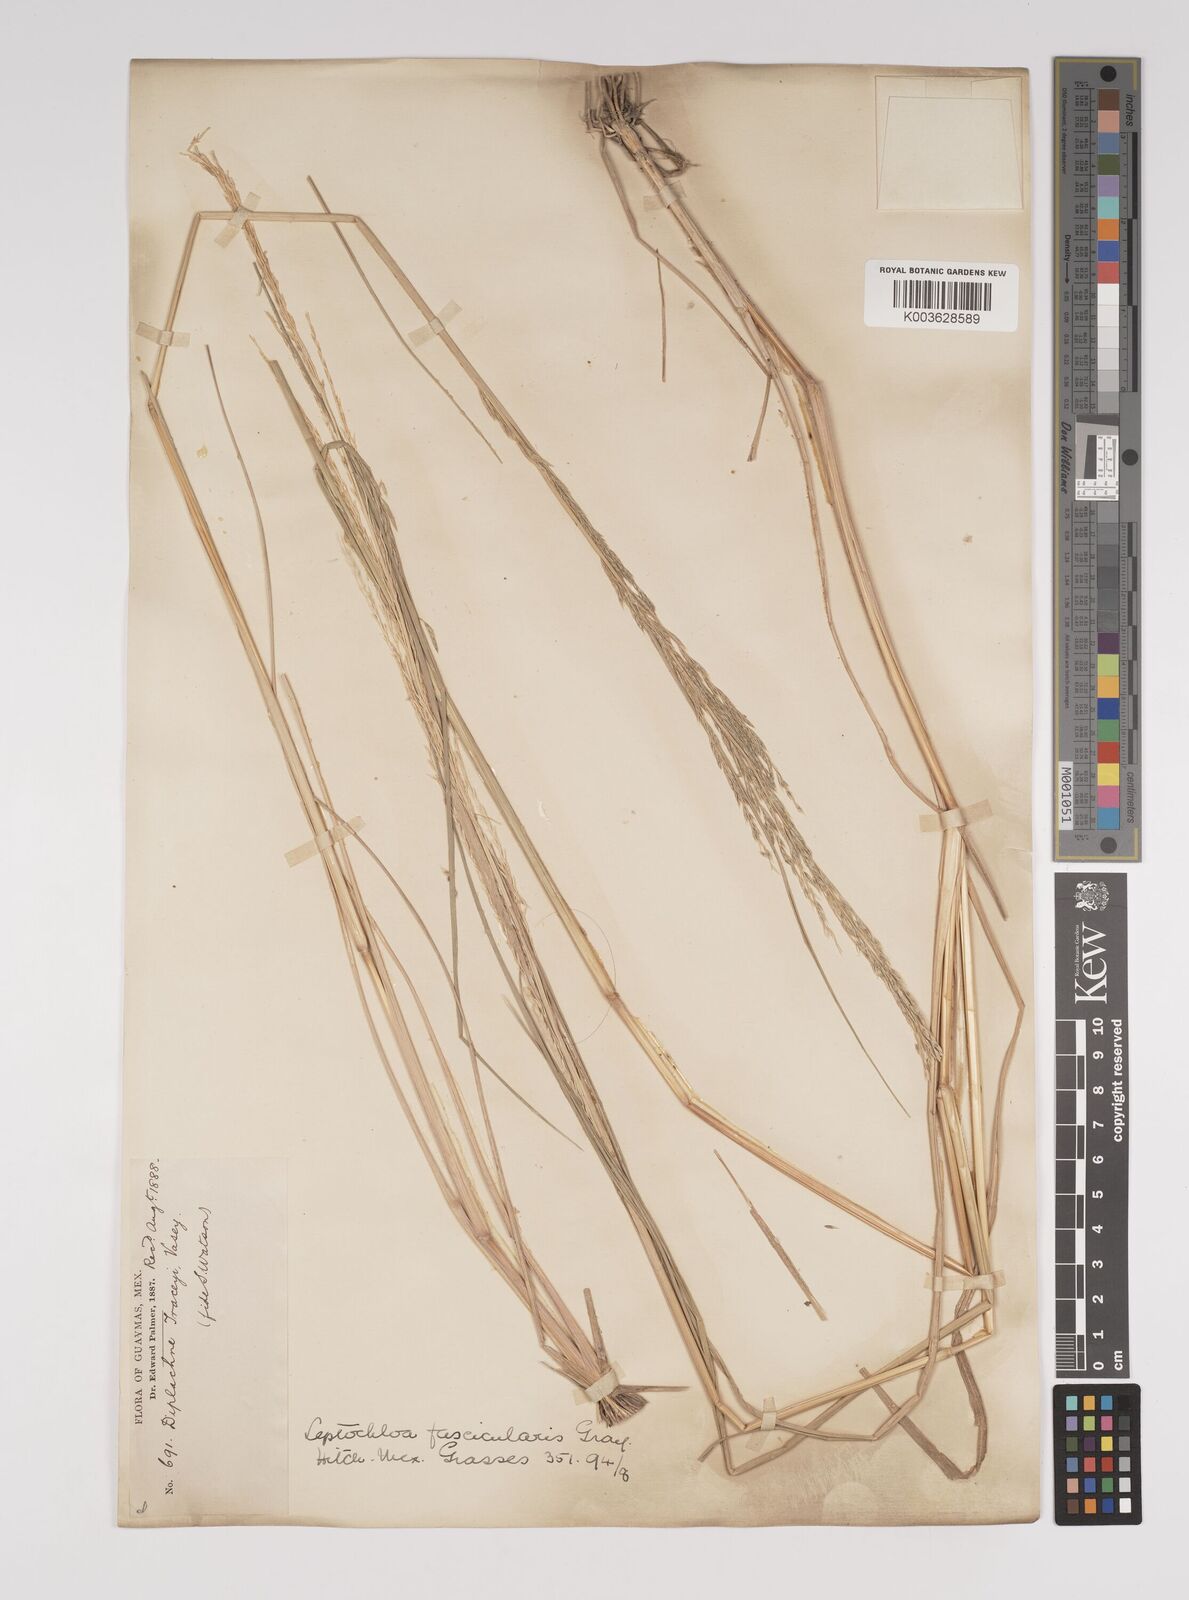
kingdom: Plantae
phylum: Tracheophyta
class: Liliopsida
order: Poales
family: Poaceae
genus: Diplachne
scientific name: Diplachne fusca
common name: Brown beetle grass
